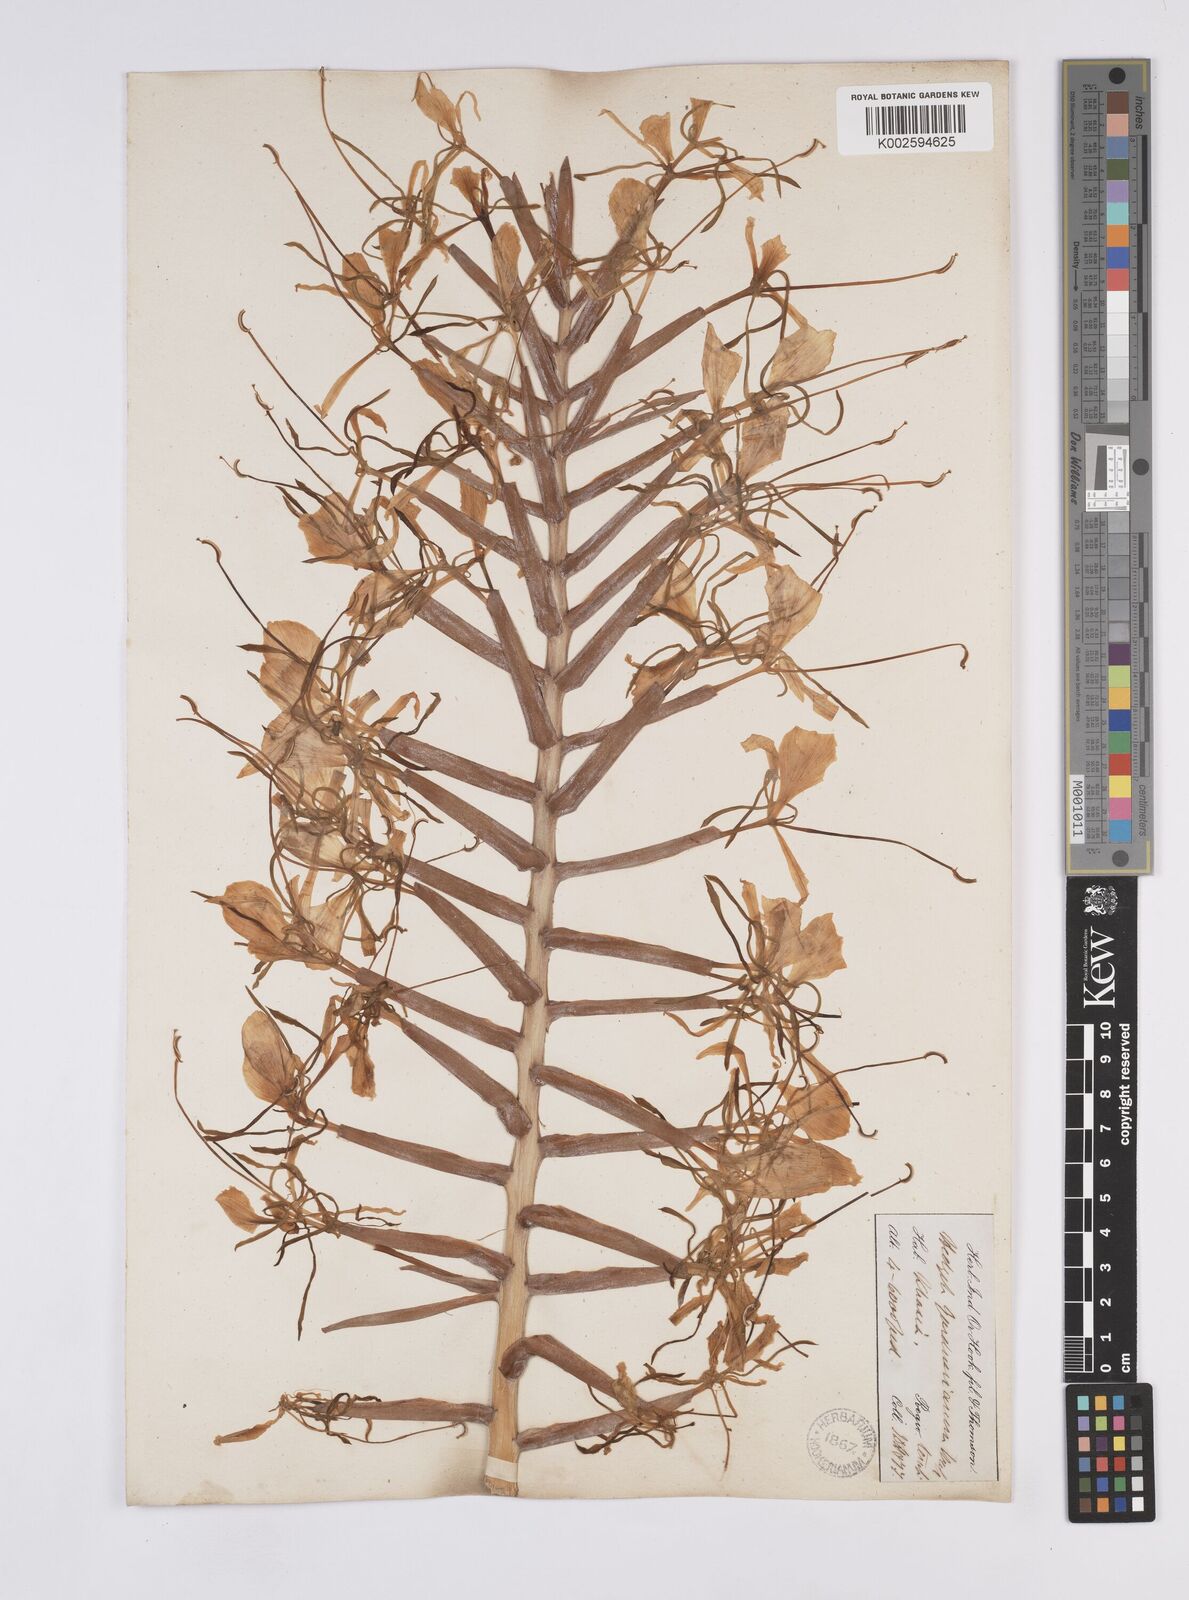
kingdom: Plantae
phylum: Tracheophyta
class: Liliopsida
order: Zingiberales
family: Zingiberaceae
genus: Hedychium
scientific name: Hedychium gardnerianum
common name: Himalayan ginger
